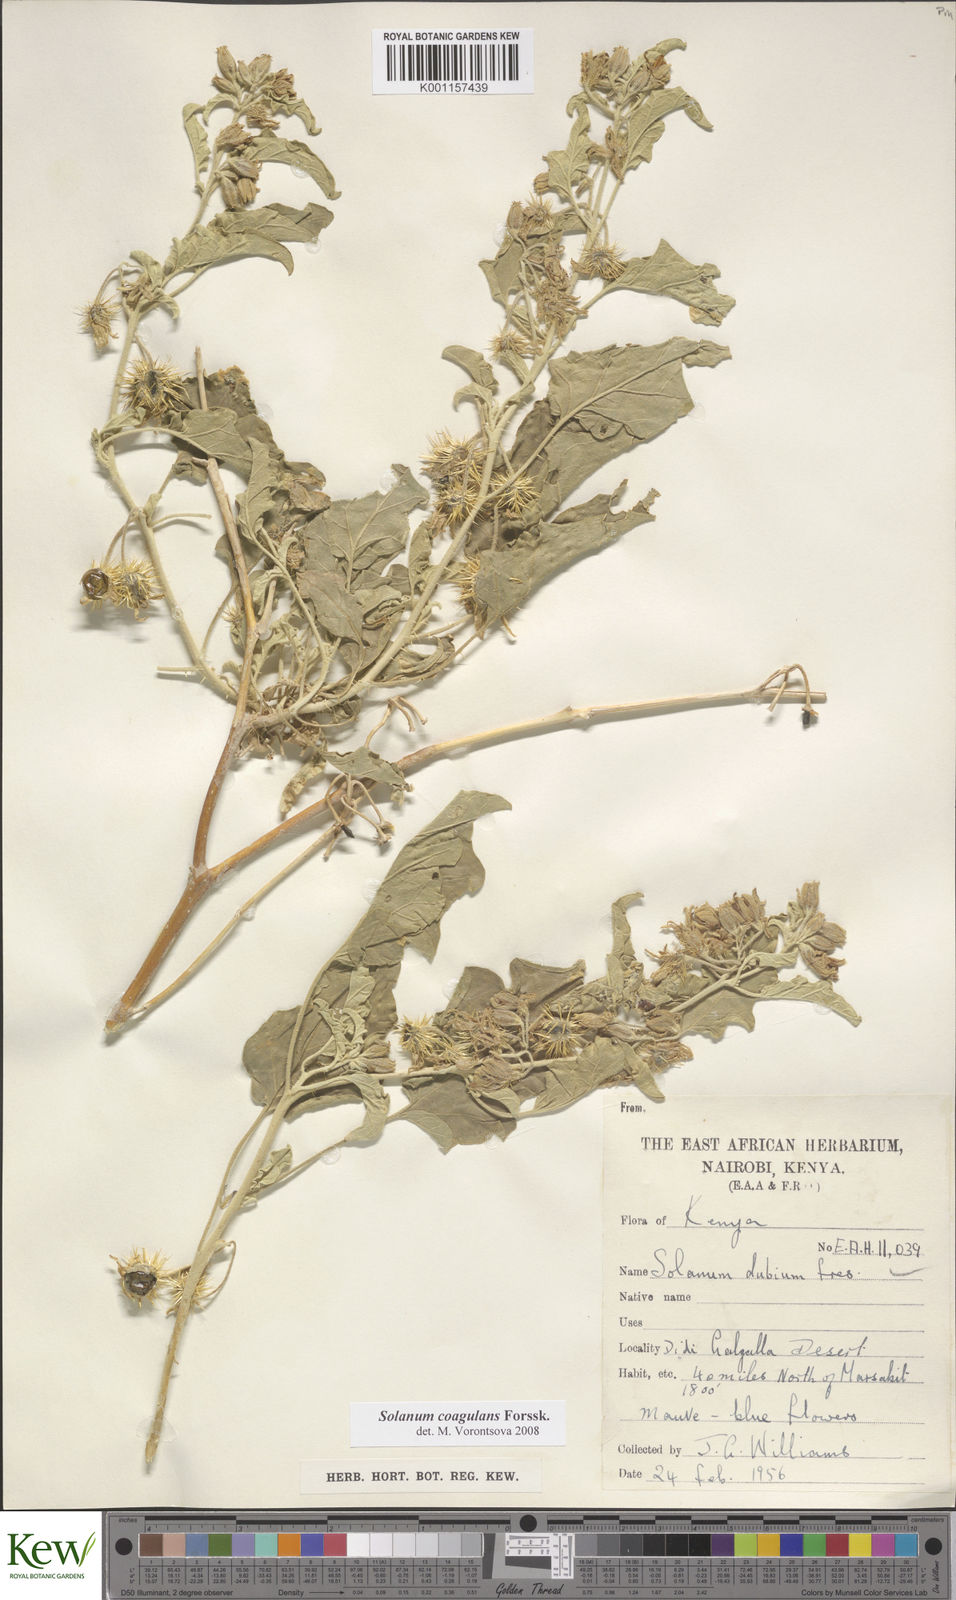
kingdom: Plantae
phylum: Tracheophyta
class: Magnoliopsida
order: Solanales
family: Solanaceae
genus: Solanum
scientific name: Solanum coagulans
